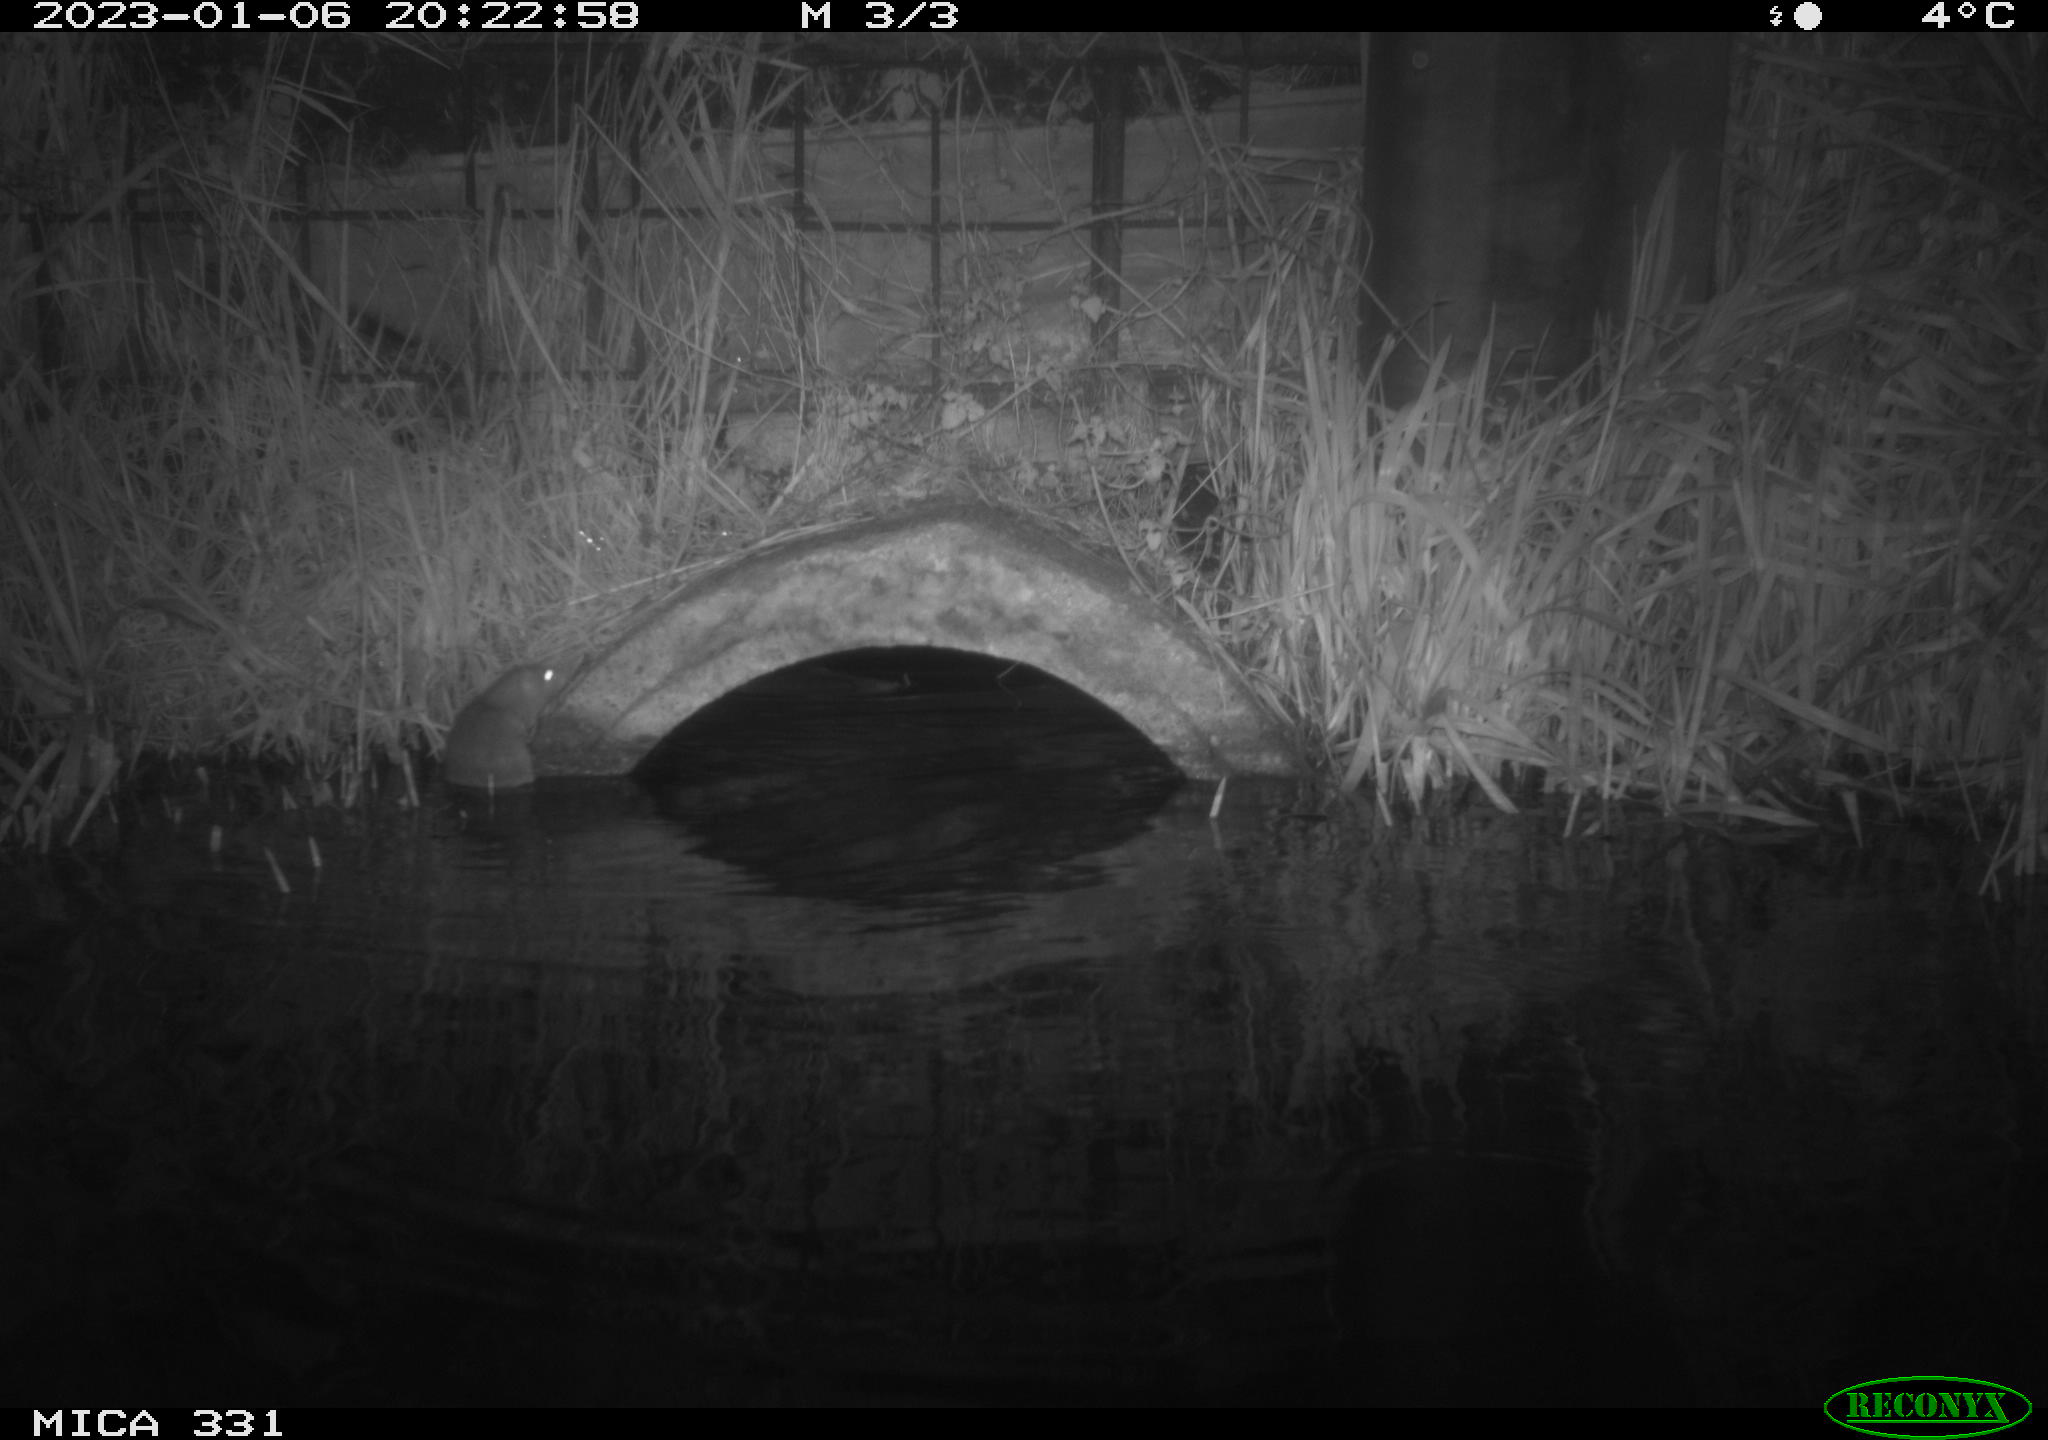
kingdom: Animalia
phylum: Chordata
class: Mammalia
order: Rodentia
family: Muridae
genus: Rattus
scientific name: Rattus norvegicus
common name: Brown rat
